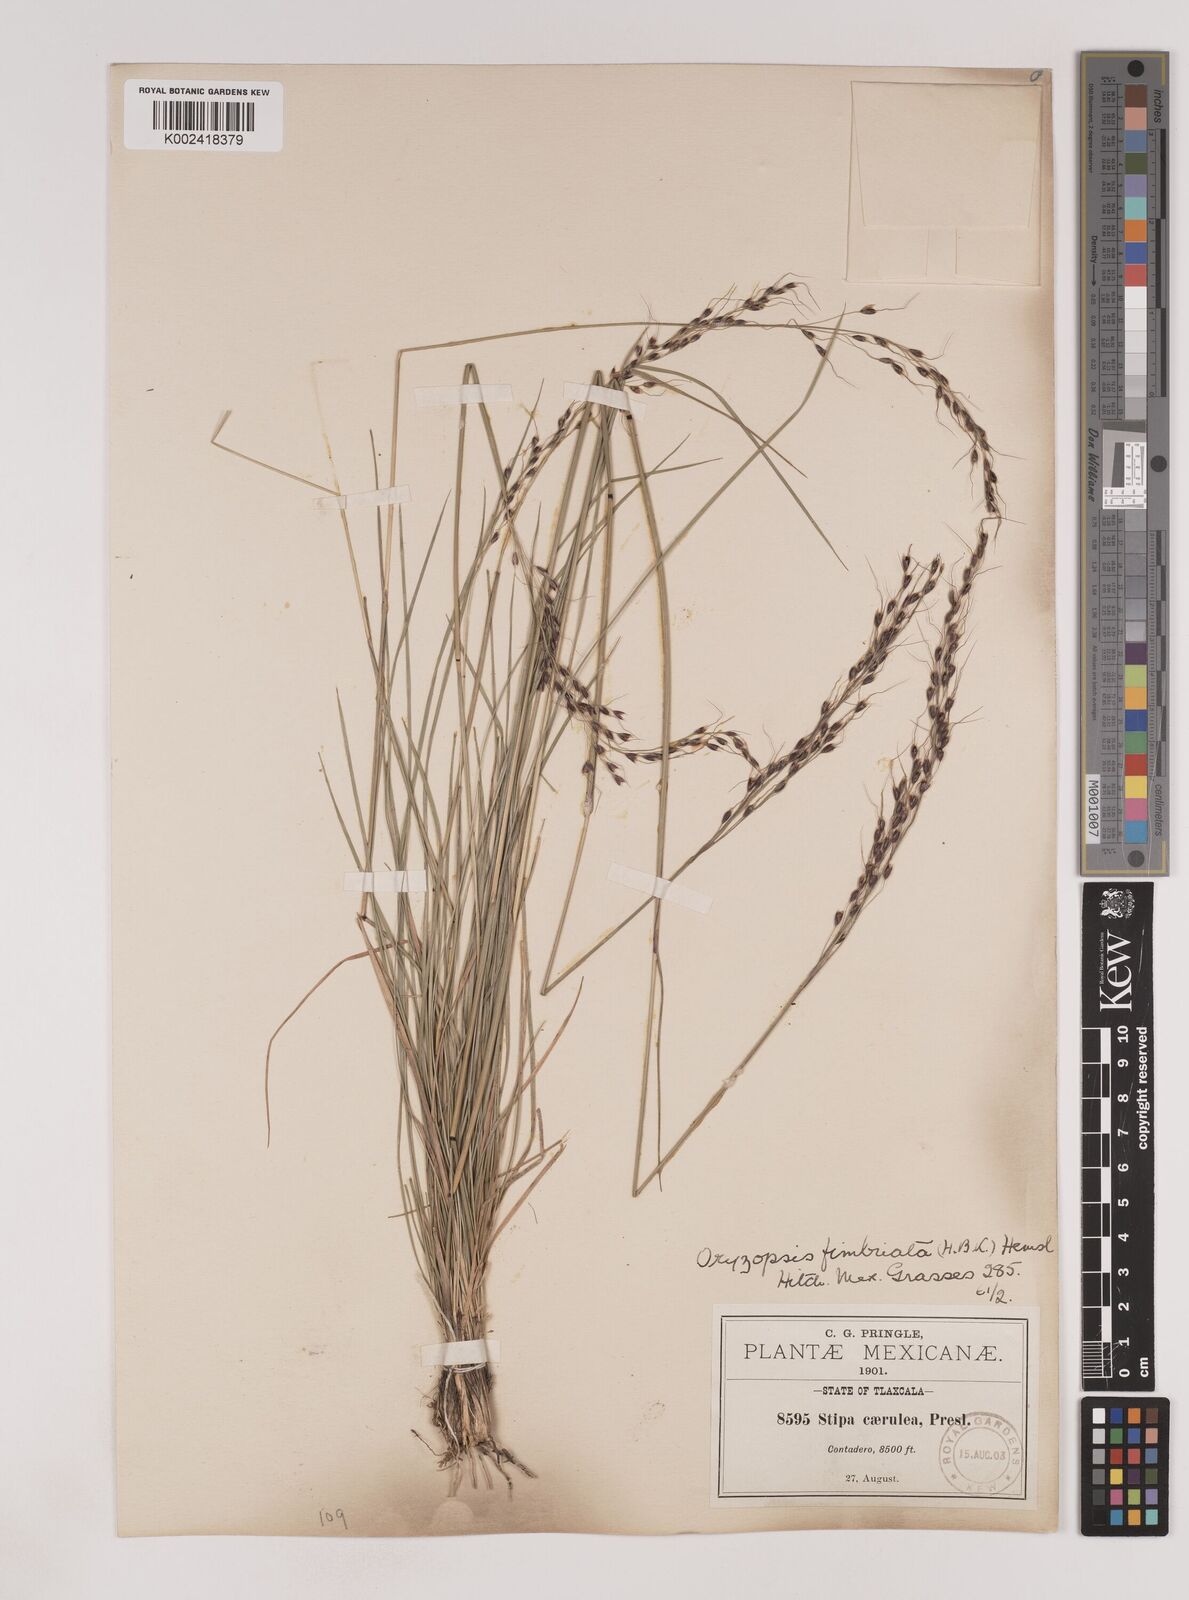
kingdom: Plantae
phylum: Tracheophyta
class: Liliopsida
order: Poales
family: Poaceae
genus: Piptochaetium
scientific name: Piptochaetium fimbriatum
